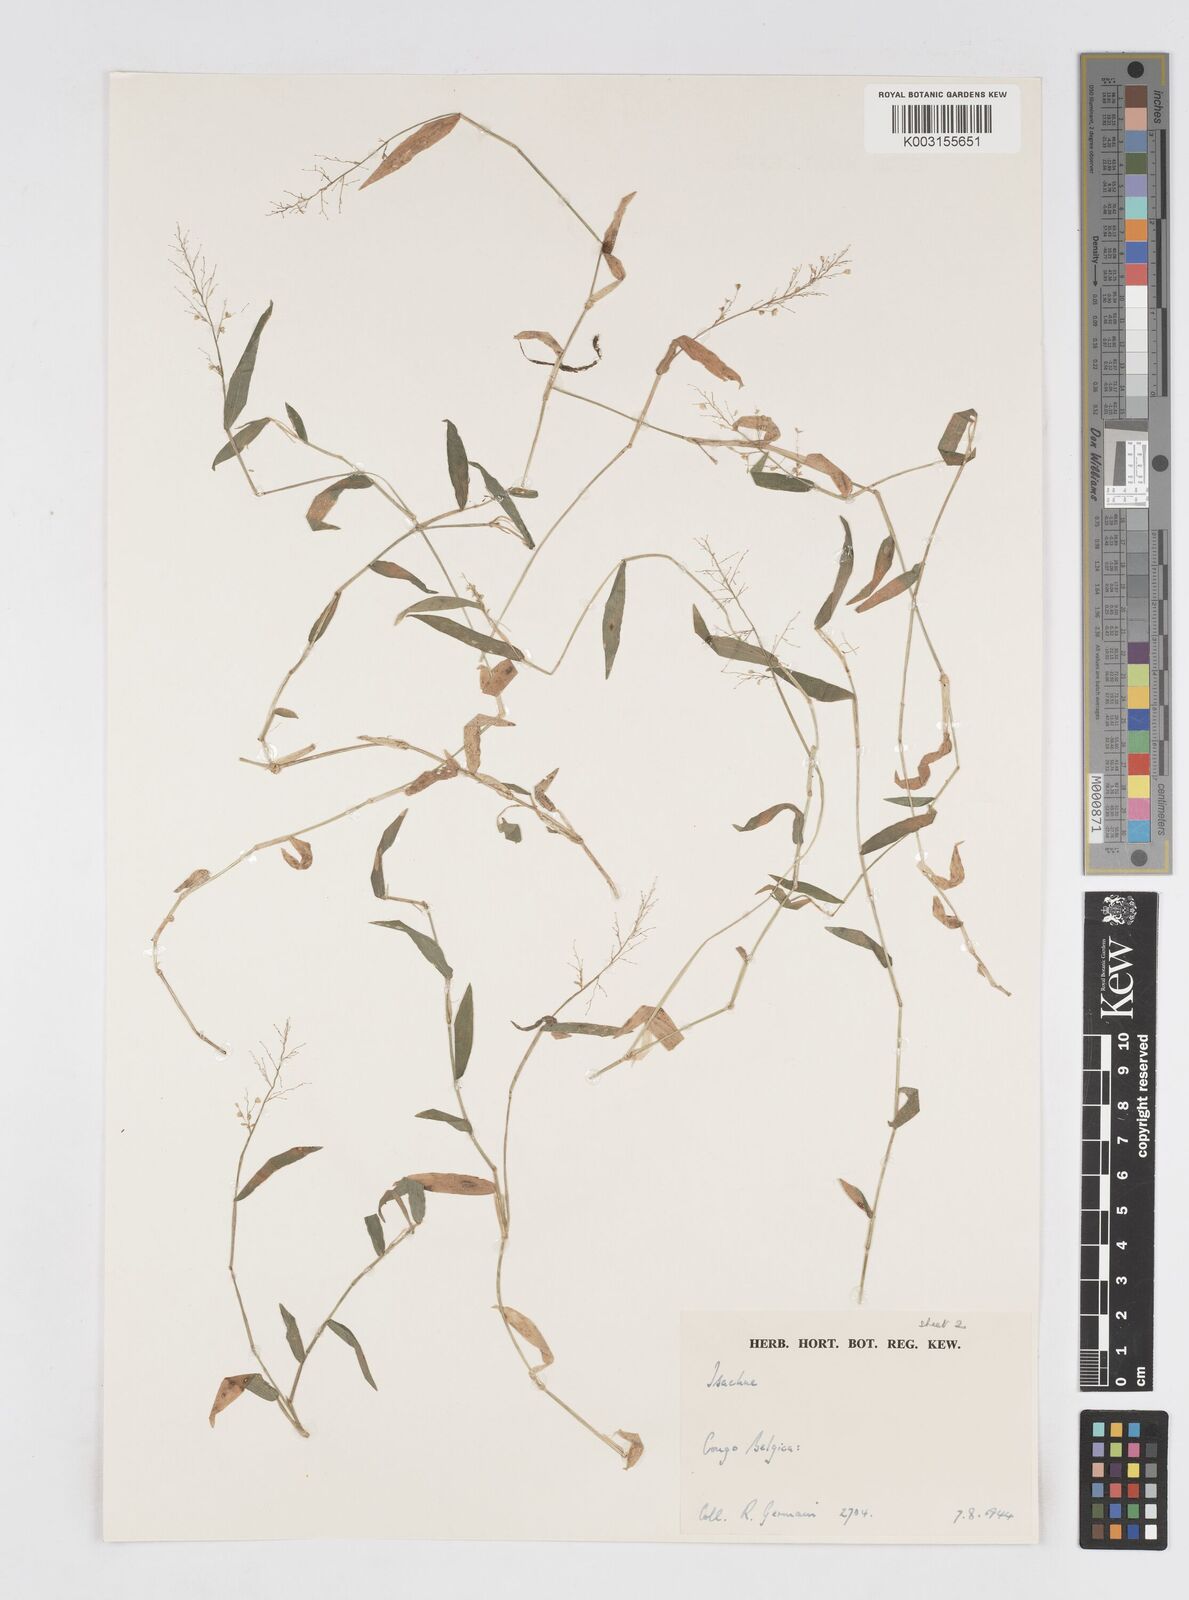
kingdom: Plantae
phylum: Tracheophyta
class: Liliopsida
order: Poales
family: Poaceae
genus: Isachne
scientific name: Isachne kiyalaensis
